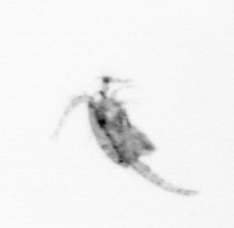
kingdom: Animalia
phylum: Arthropoda
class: Copepoda
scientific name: Copepoda
